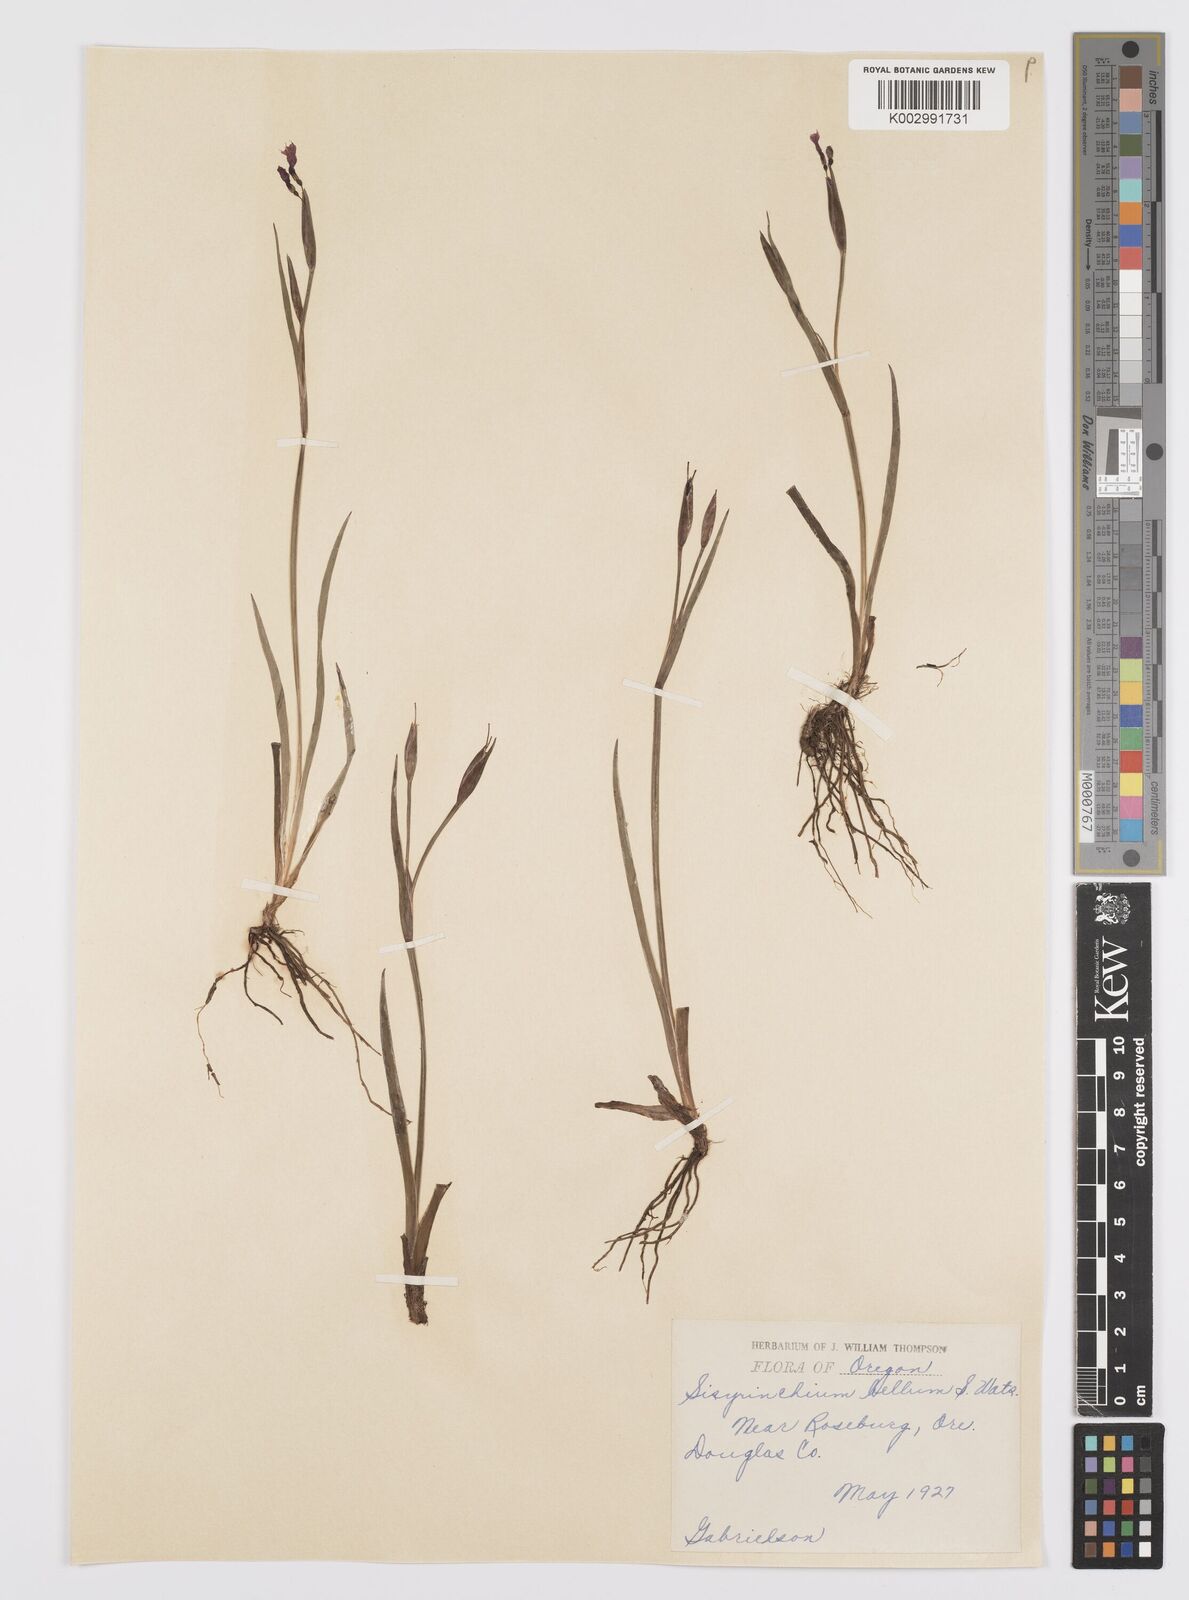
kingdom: Plantae
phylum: Tracheophyta
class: Liliopsida
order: Asparagales
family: Iridaceae
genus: Sisyrinchium
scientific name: Sisyrinchium bellum
